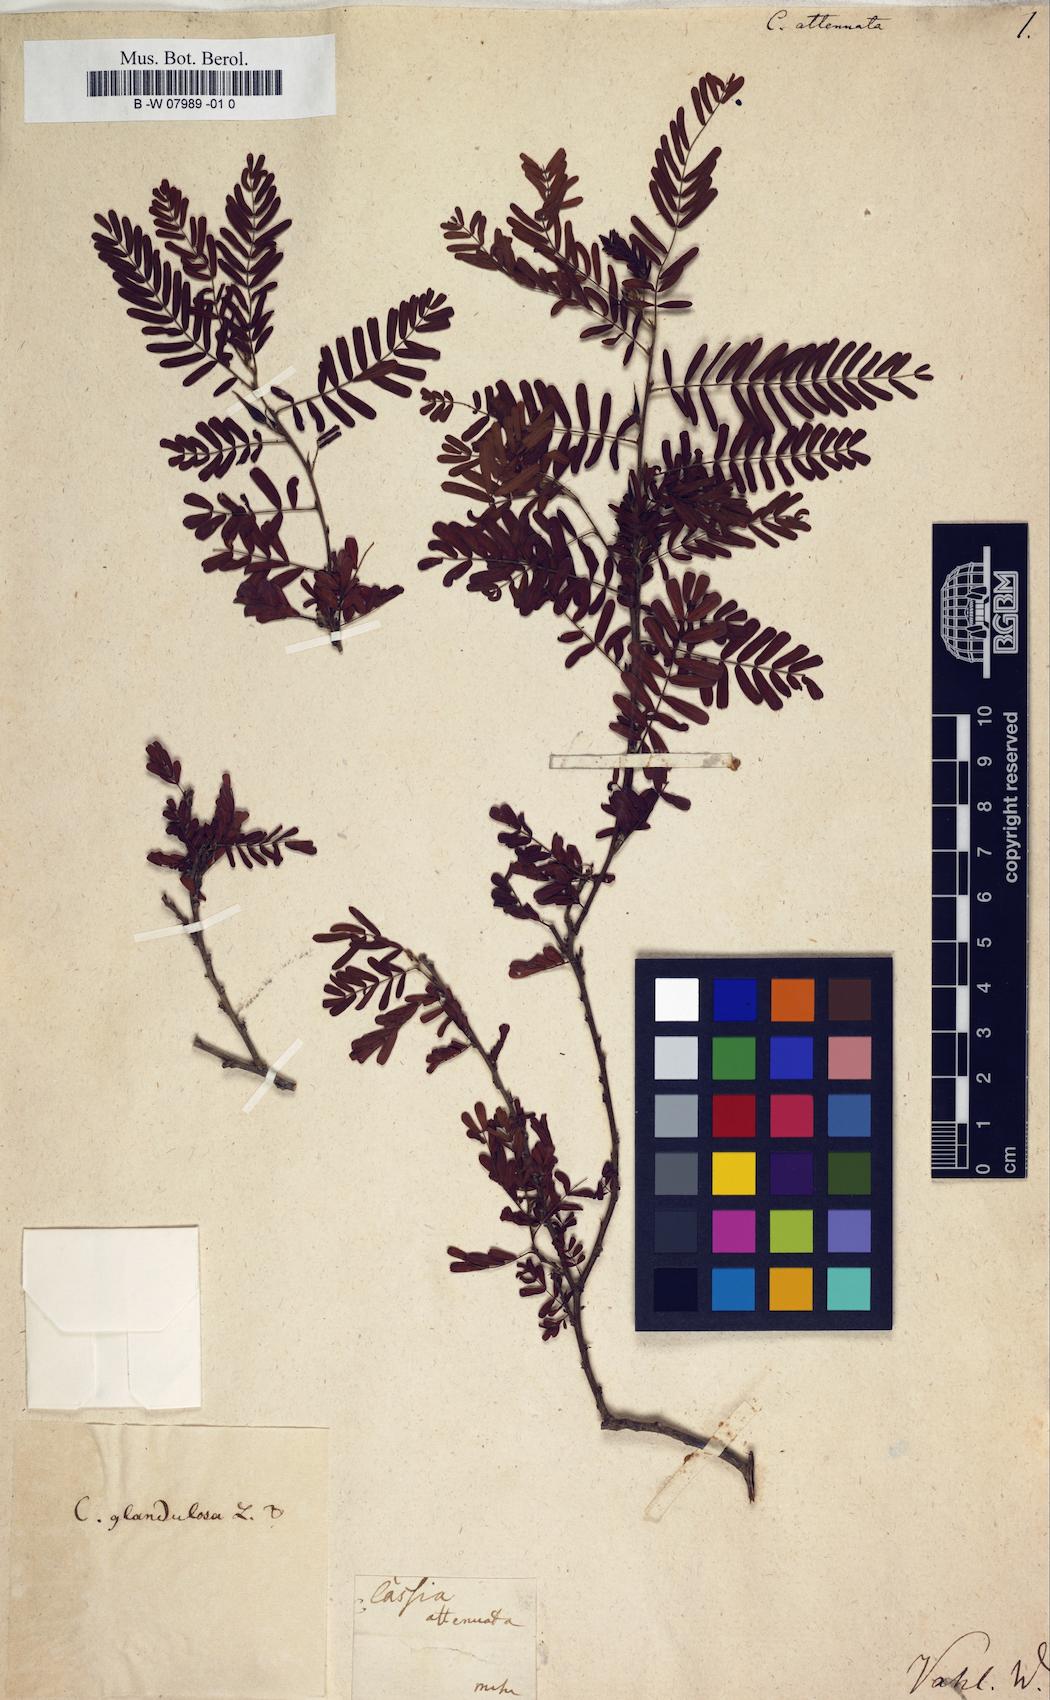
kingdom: Plantae
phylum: Tracheophyta
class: Magnoliopsida
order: Fabales
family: Fabaceae
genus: Cassia
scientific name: Cassia
